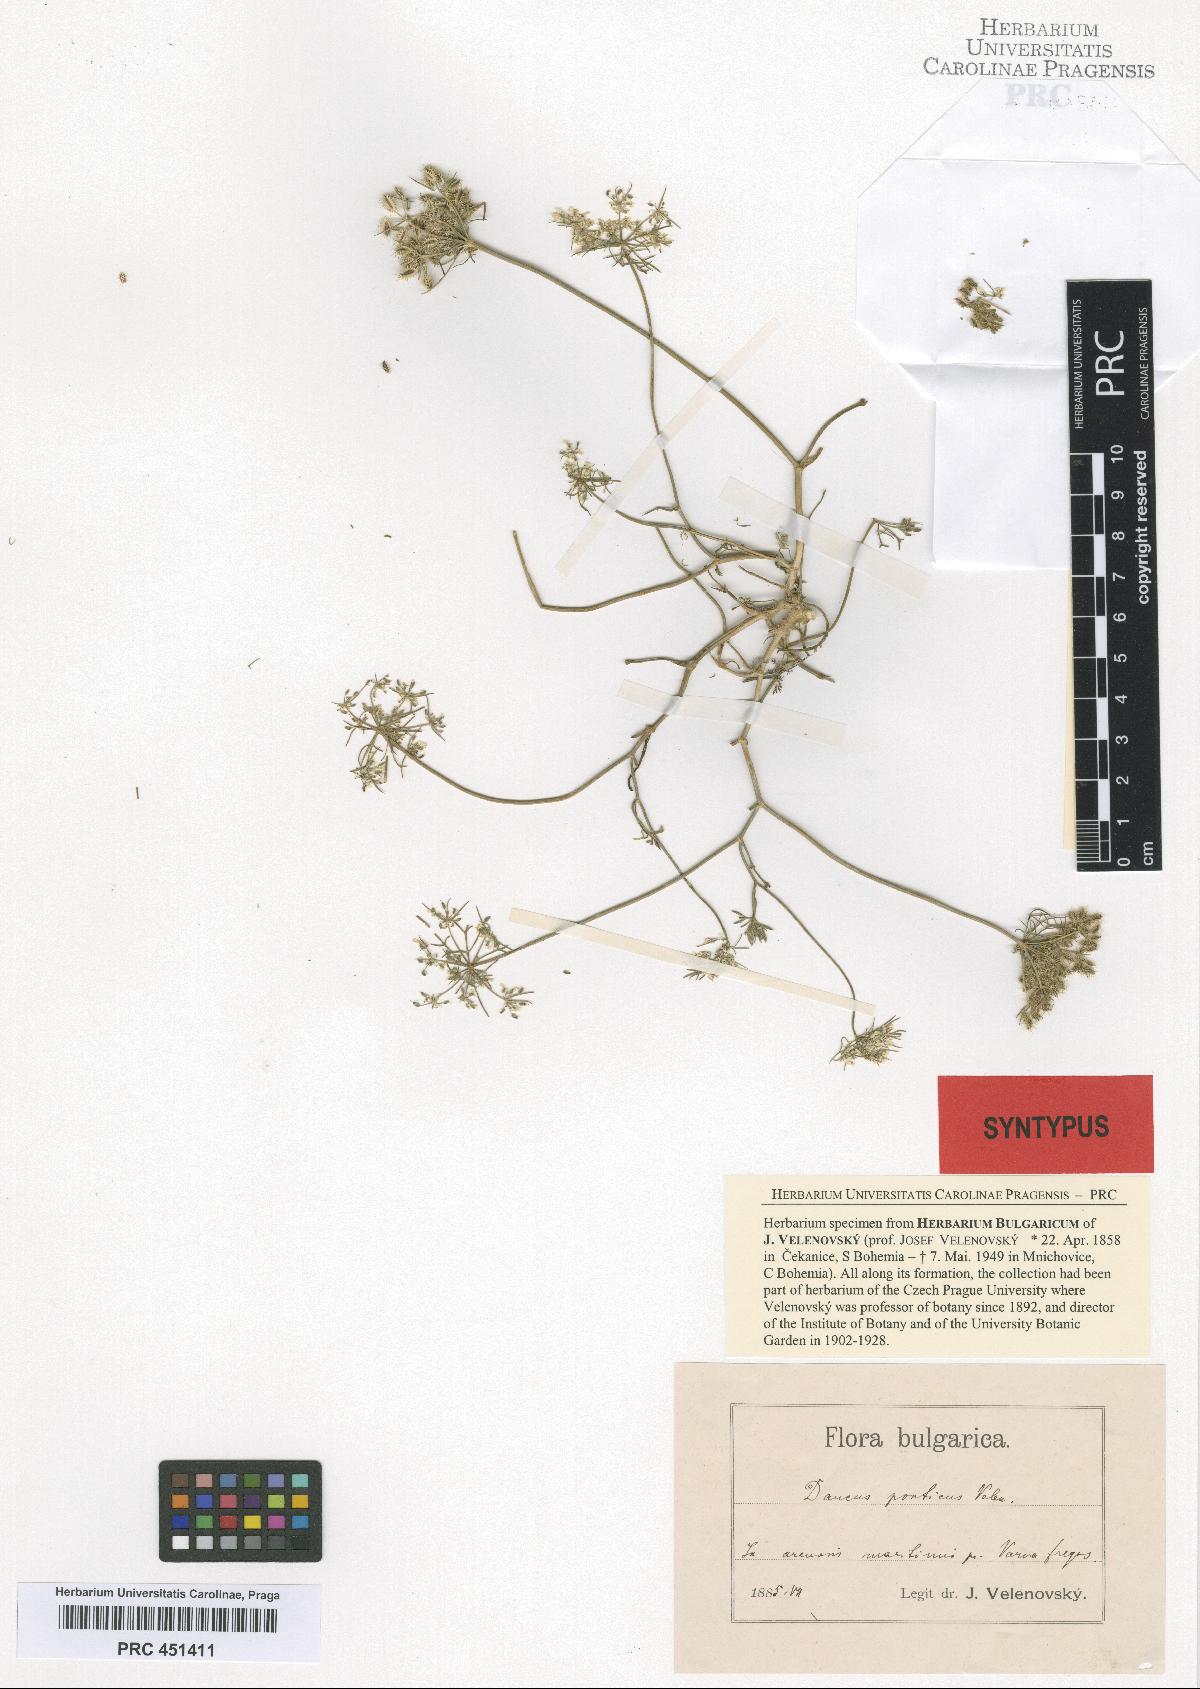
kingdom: Plantae
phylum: Tracheophyta
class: Magnoliopsida
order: Apiales
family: Apiaceae
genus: Daucus
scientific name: Daucus guttatus
